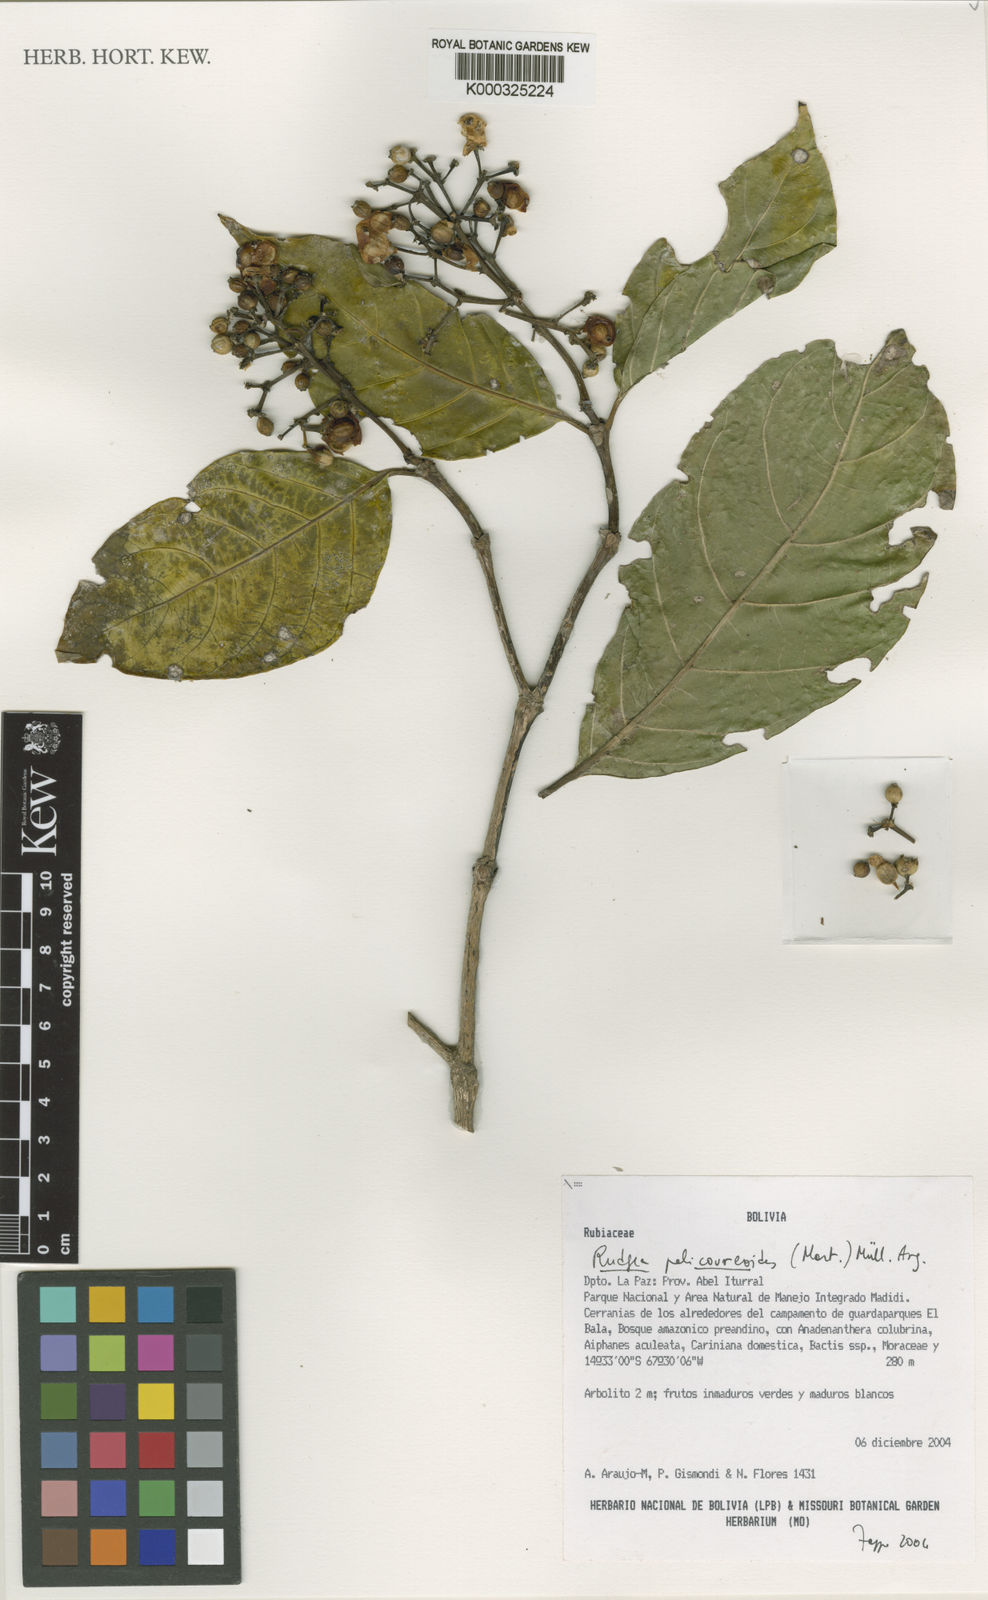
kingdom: Plantae
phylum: Tracheophyta
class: Magnoliopsida
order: Gentianales
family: Rubiaceae
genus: Rudgea
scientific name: Rudgea palicoureoides
